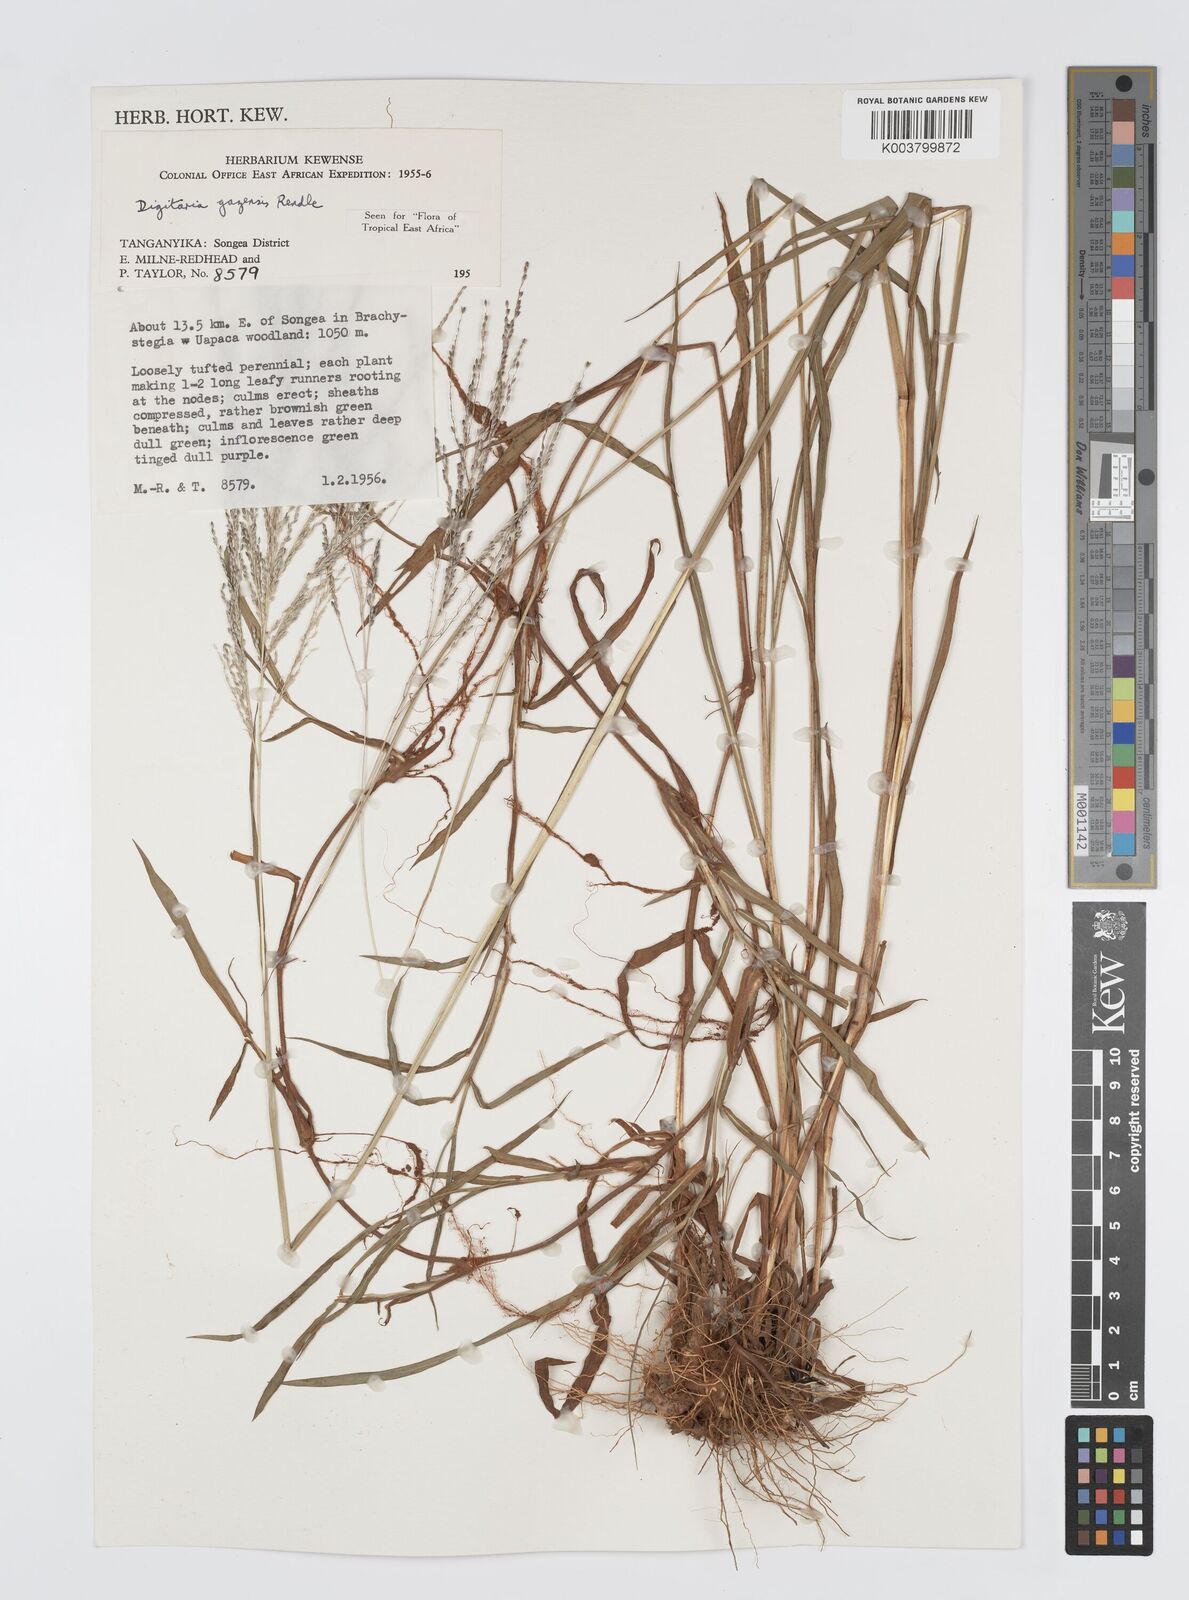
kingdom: Plantae
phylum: Tracheophyta
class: Liliopsida
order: Poales
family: Poaceae
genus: Digitaria
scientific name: Digitaria gazensis
